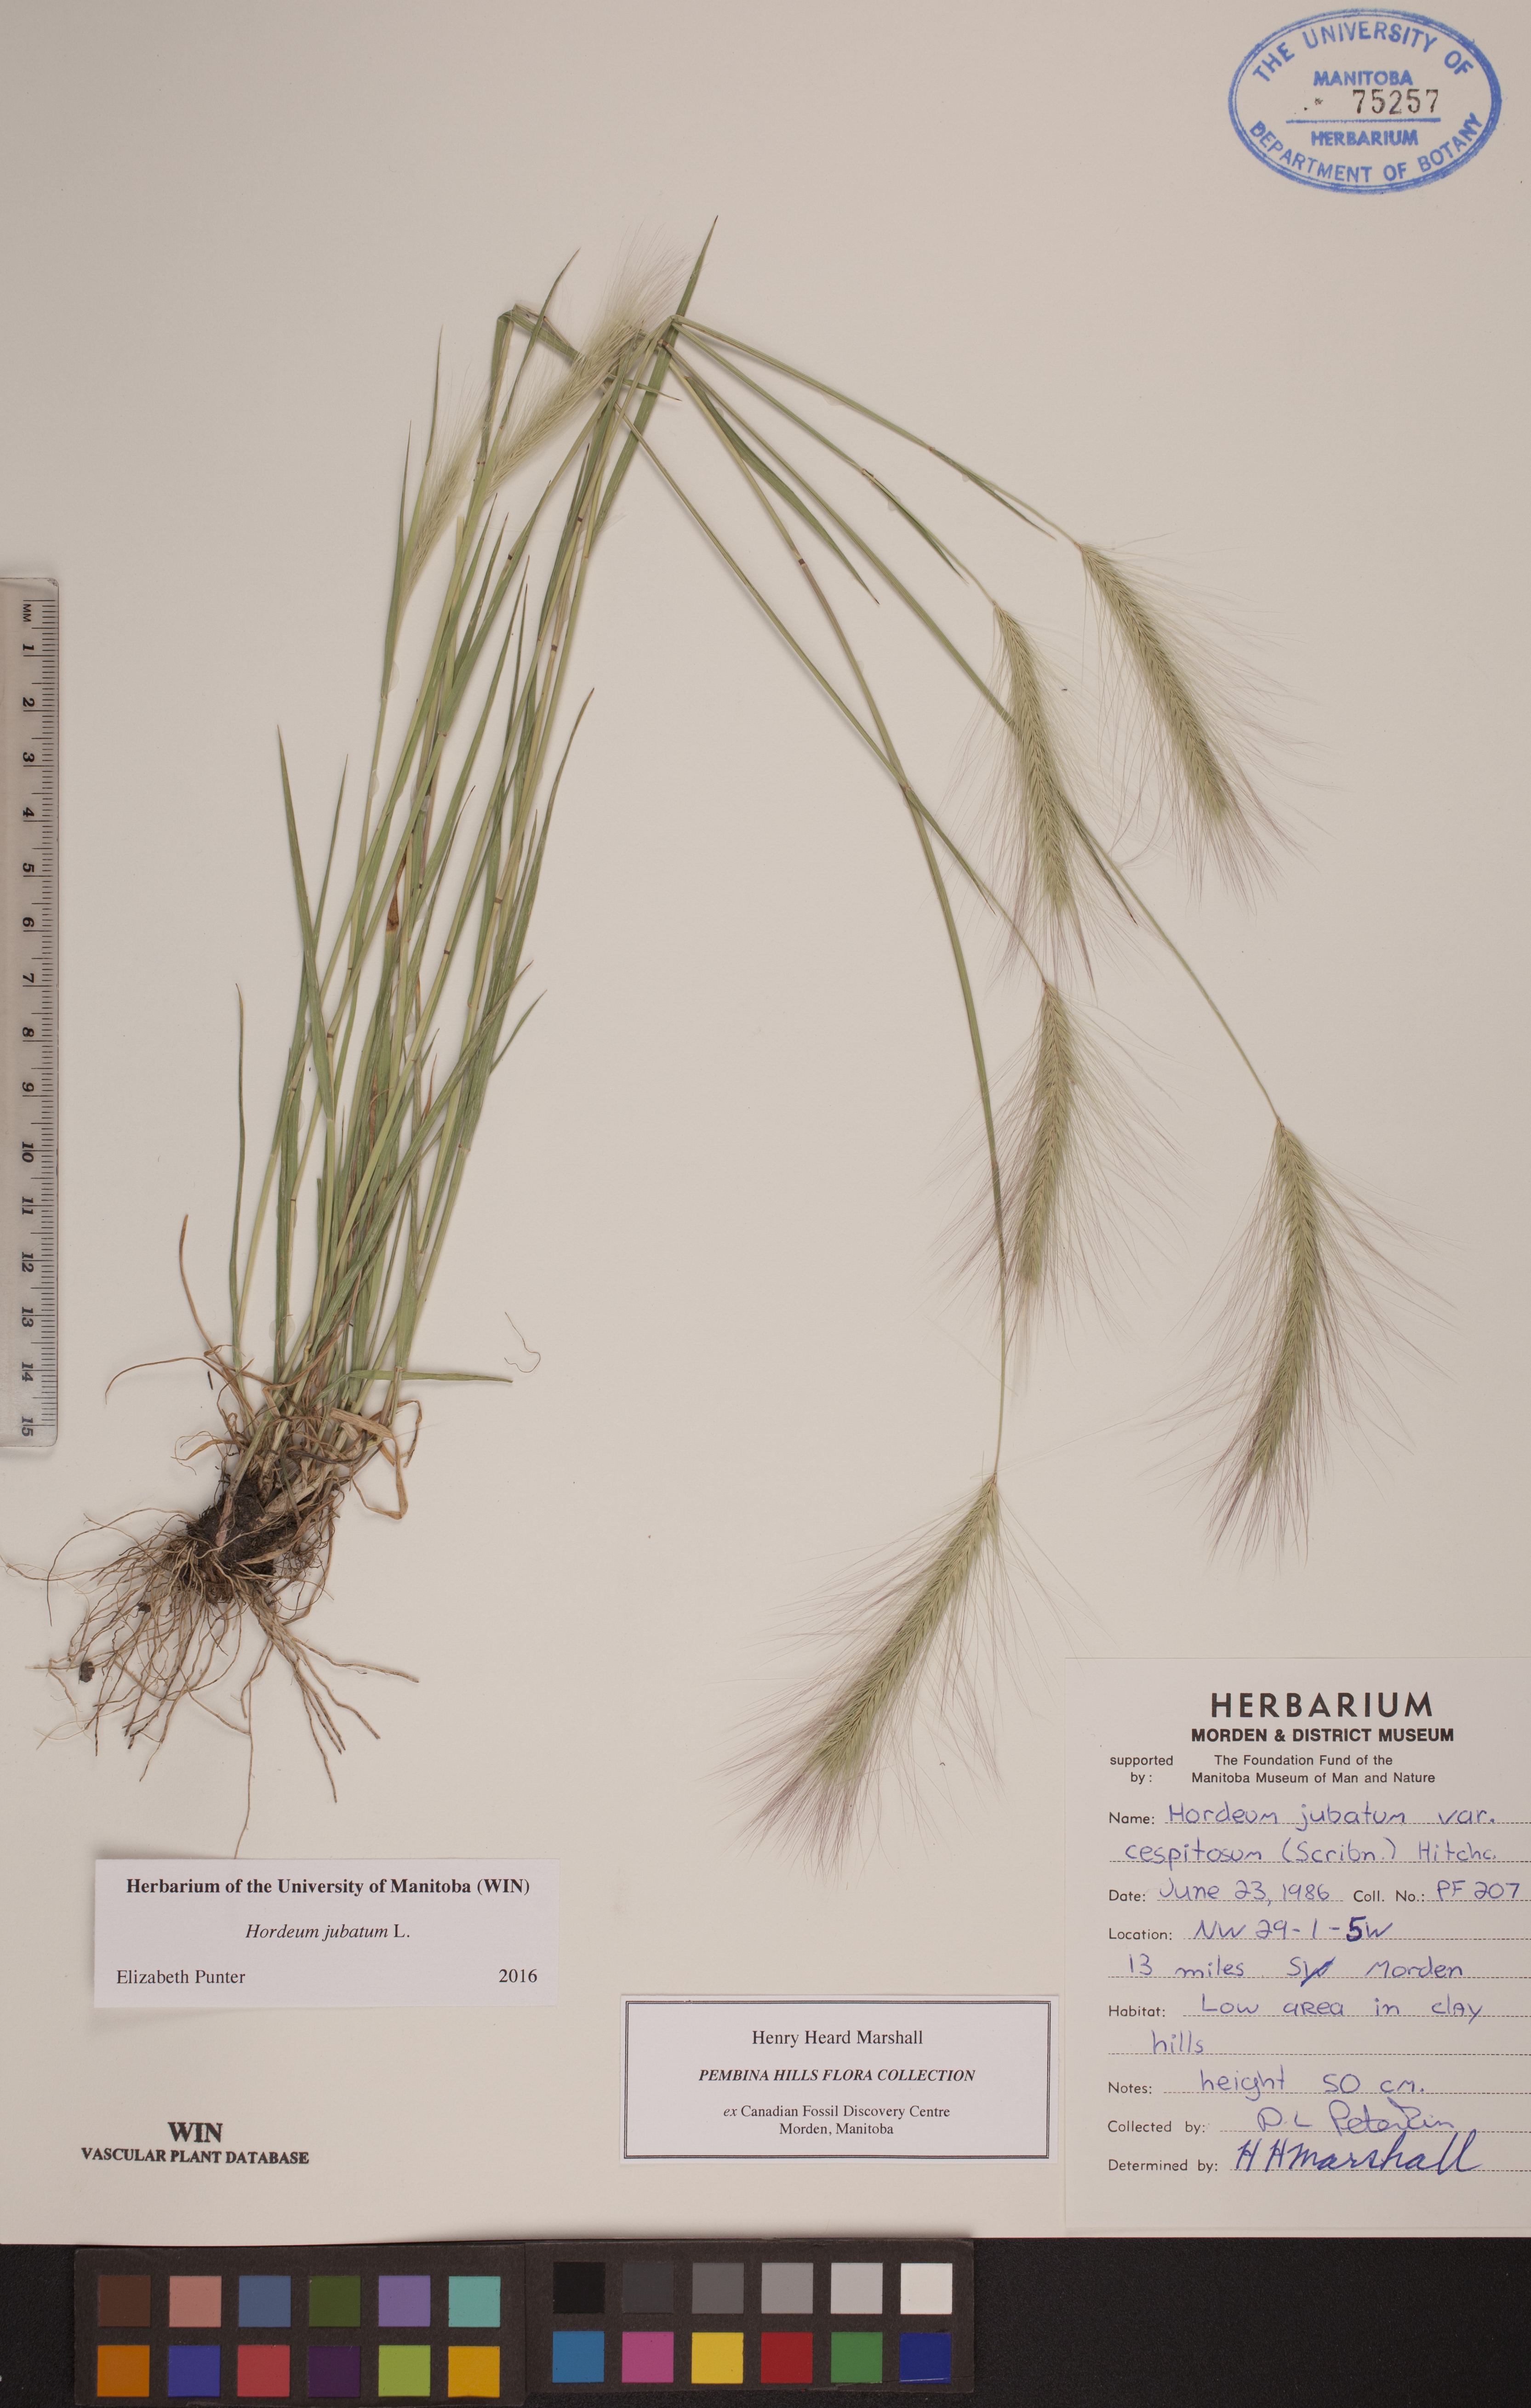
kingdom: Plantae
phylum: Tracheophyta
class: Liliopsida
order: Poales
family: Poaceae
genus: Hordeum
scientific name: Hordeum jubatum
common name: Foxtail barley
